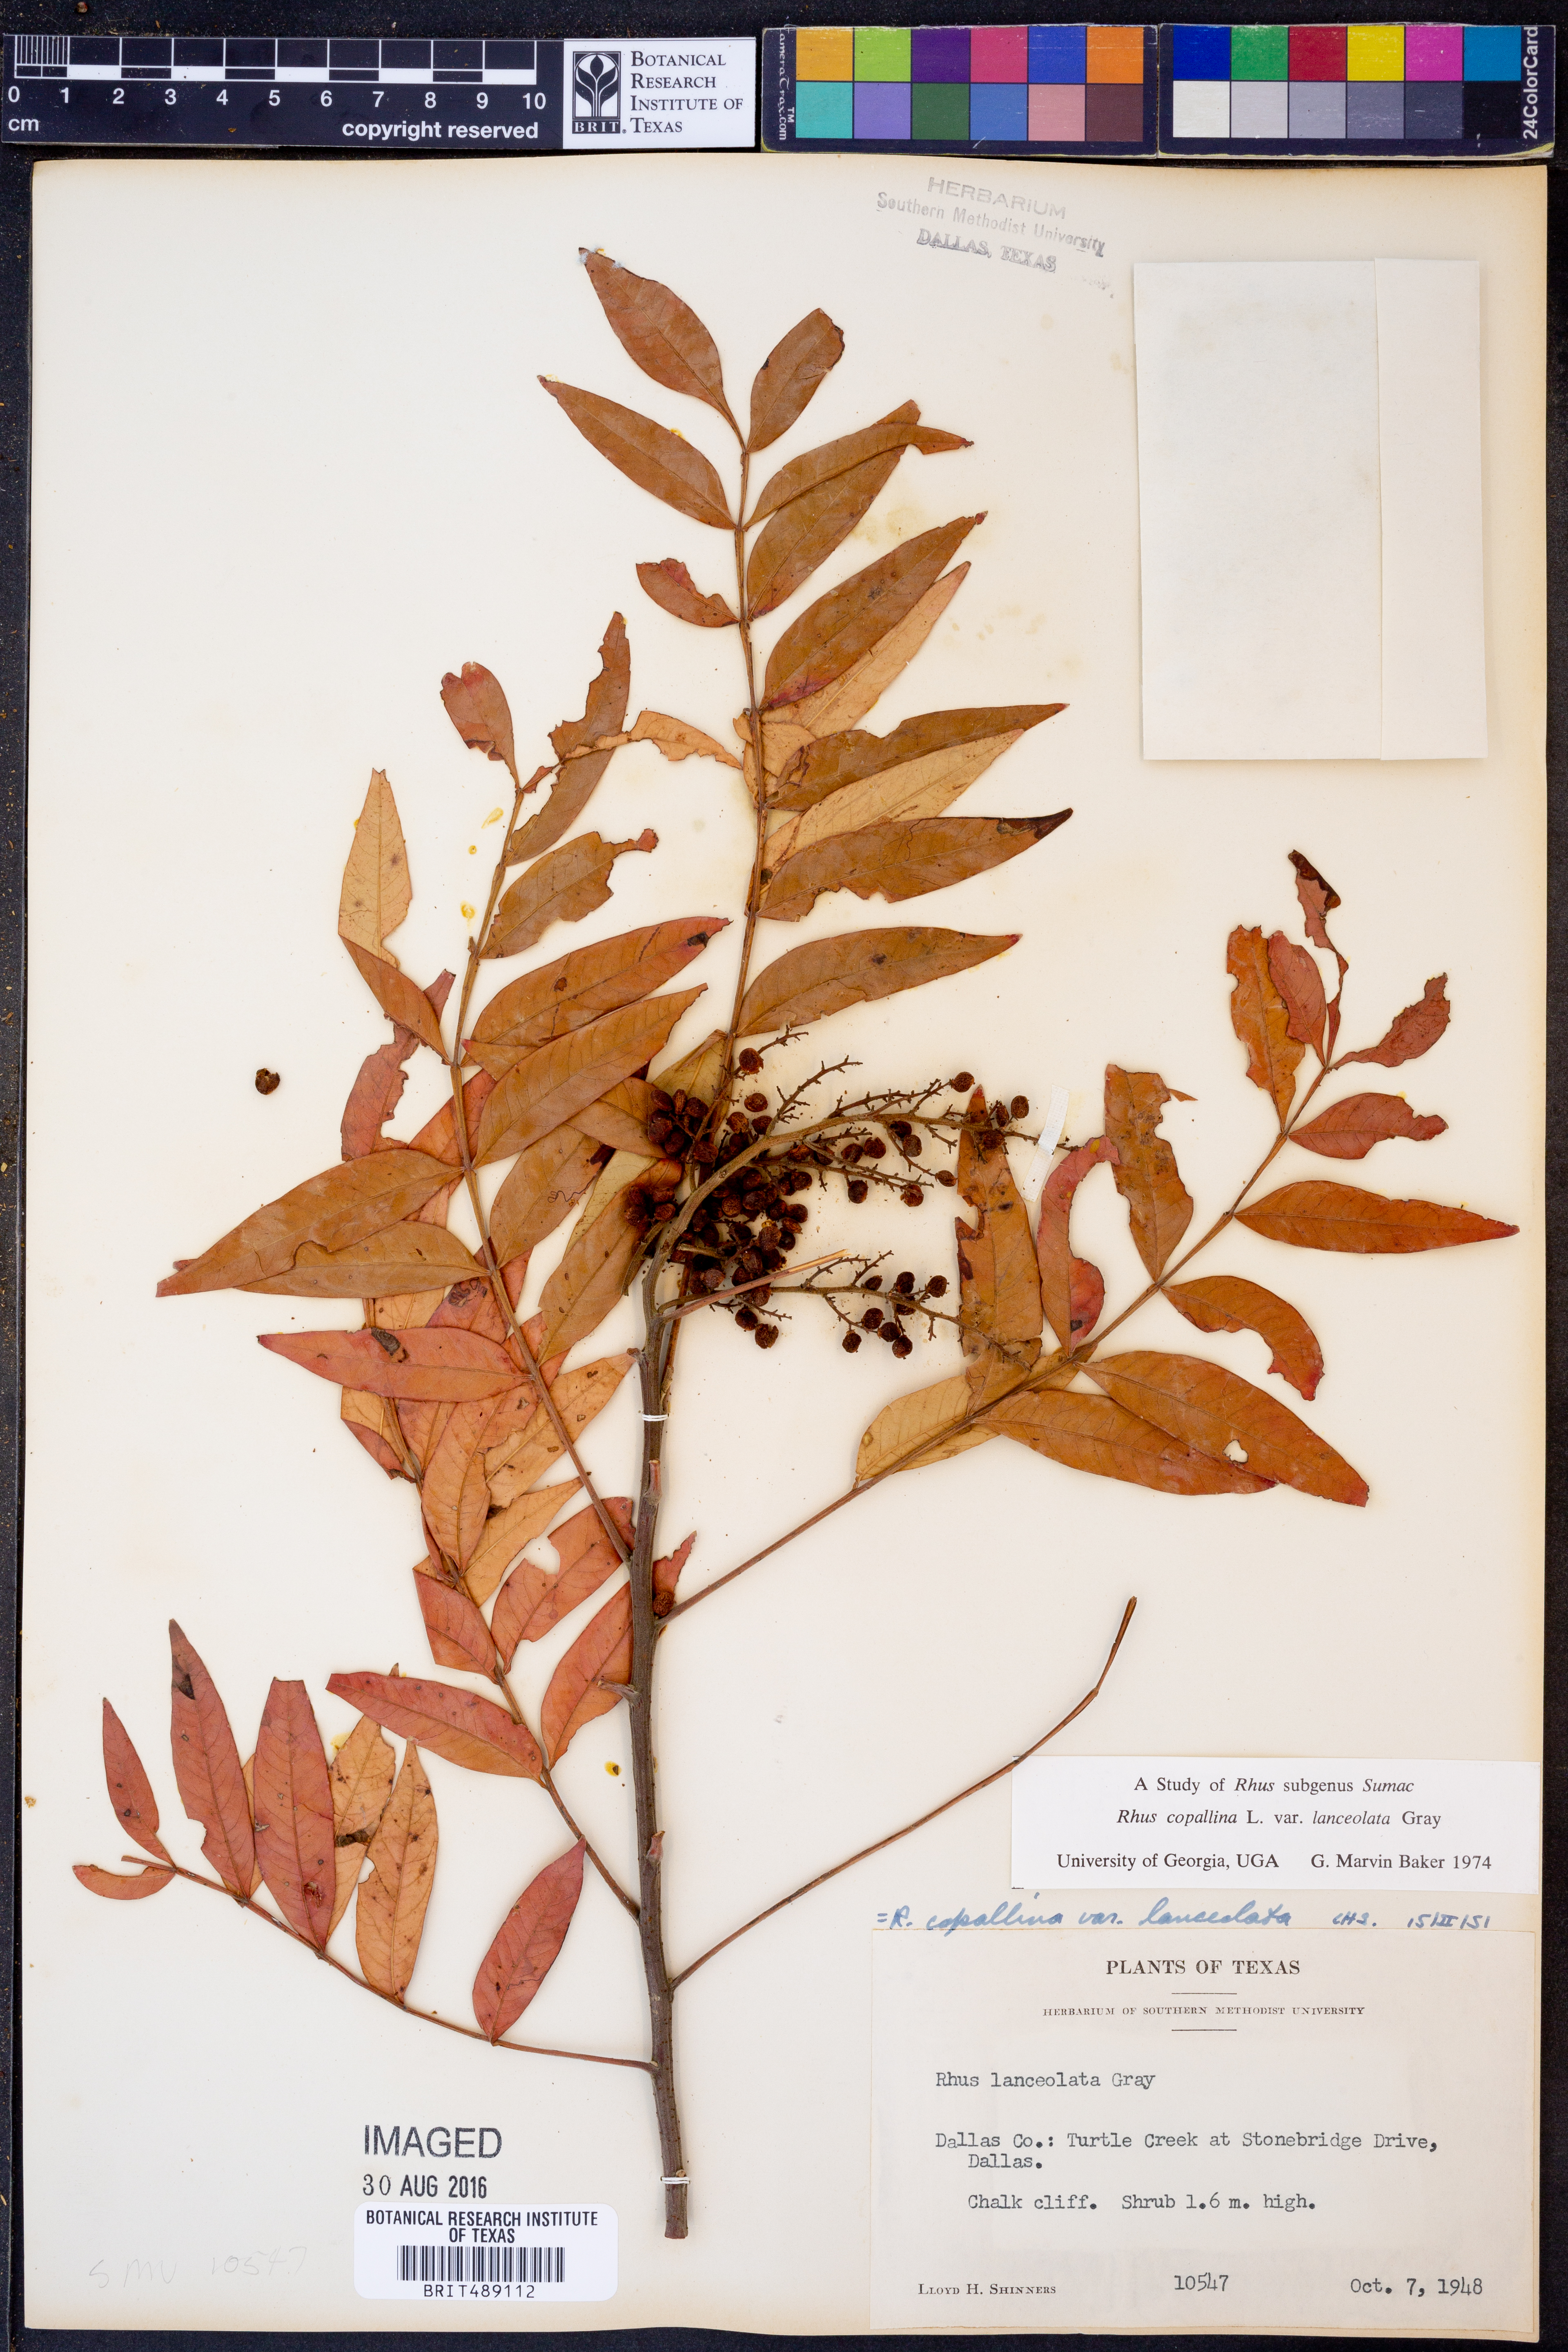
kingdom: Plantae
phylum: Tracheophyta
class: Magnoliopsida
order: Sapindales
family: Anacardiaceae
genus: Rhus
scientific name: Rhus lanceolata
